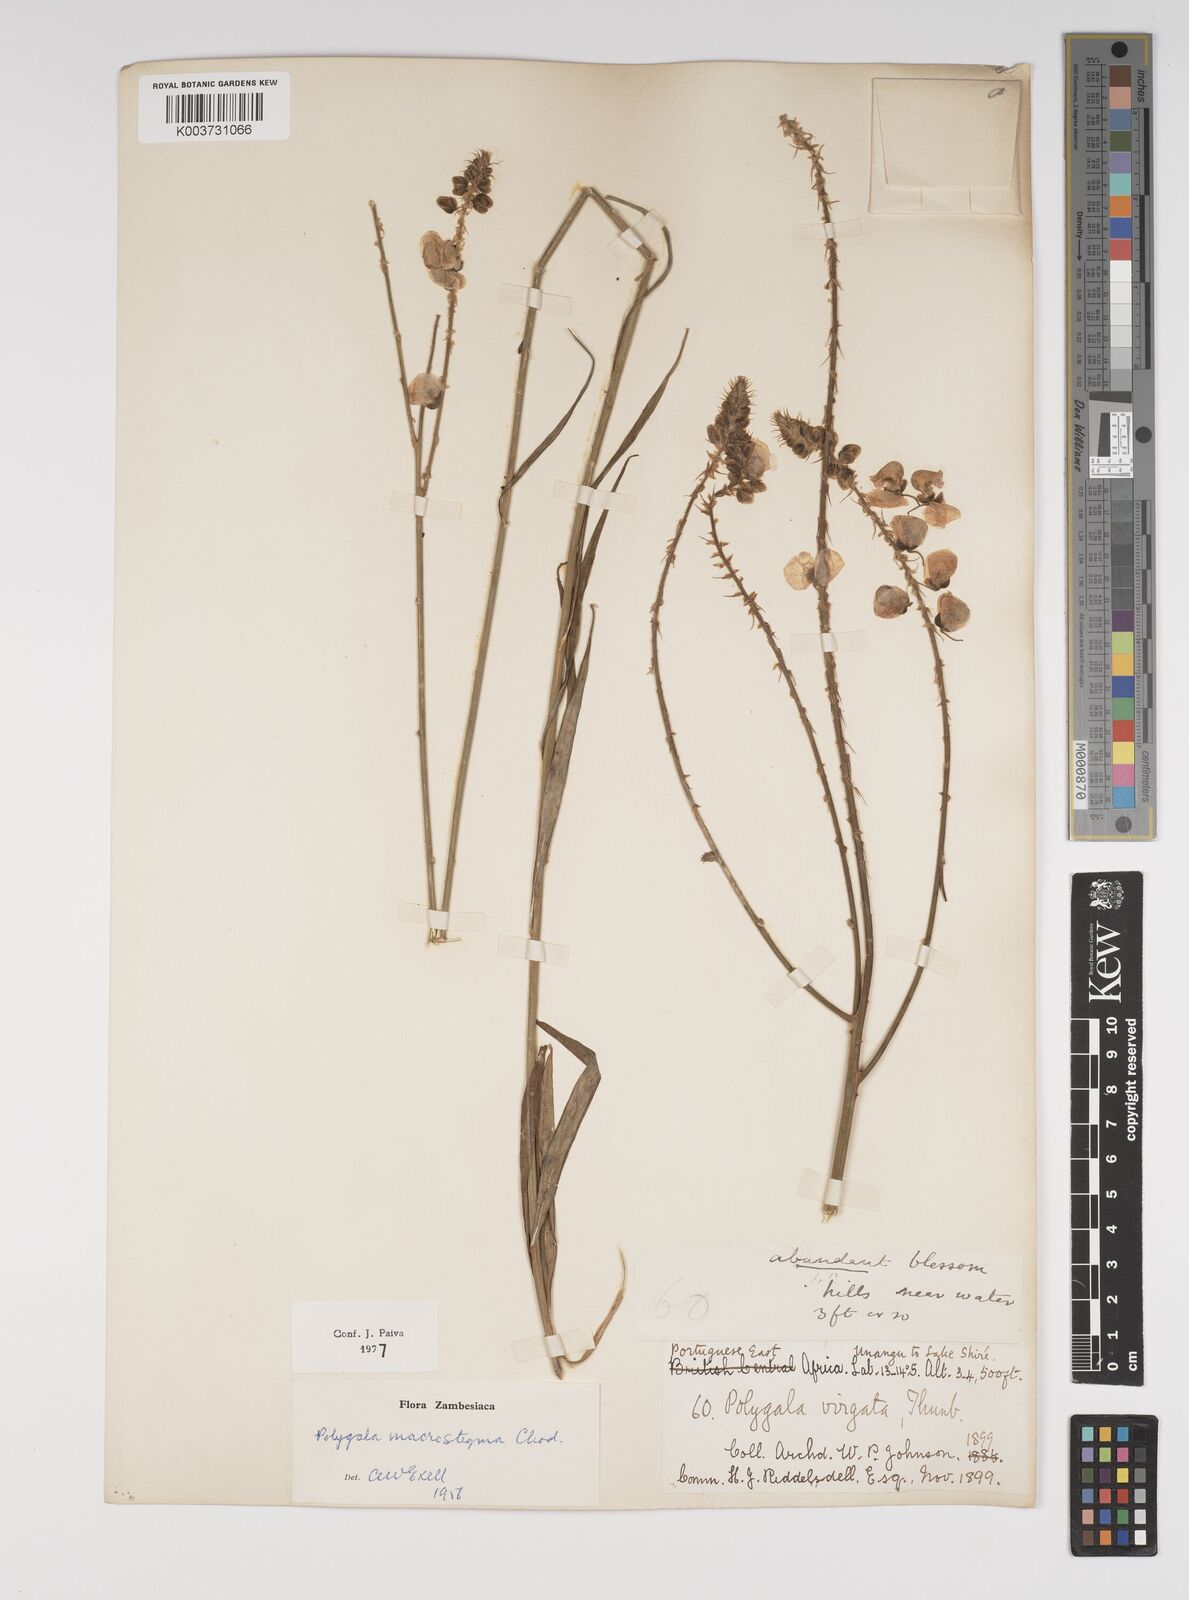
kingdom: Plantae
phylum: Tracheophyta
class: Magnoliopsida
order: Fabales
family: Polygalaceae
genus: Polygala
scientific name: Polygala macrostigma
